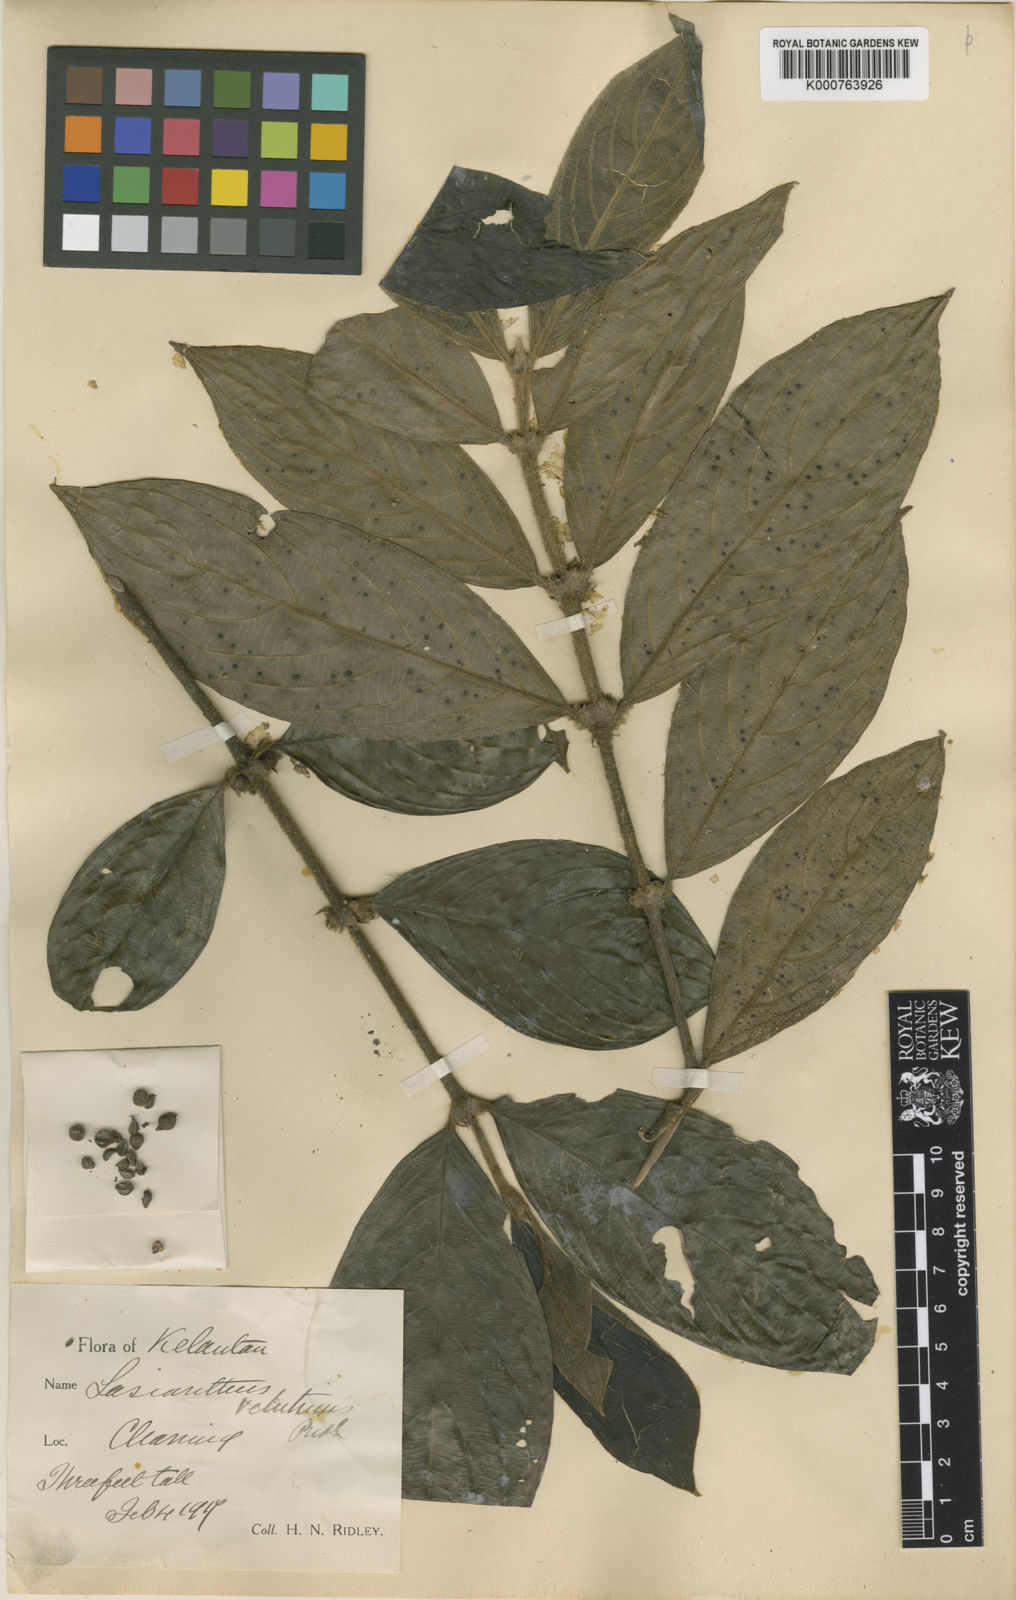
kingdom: Plantae
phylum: Tracheophyta
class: Magnoliopsida
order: Gentianales
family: Rubiaceae
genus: Lasianthus
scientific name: Lasianthus ellipticus
